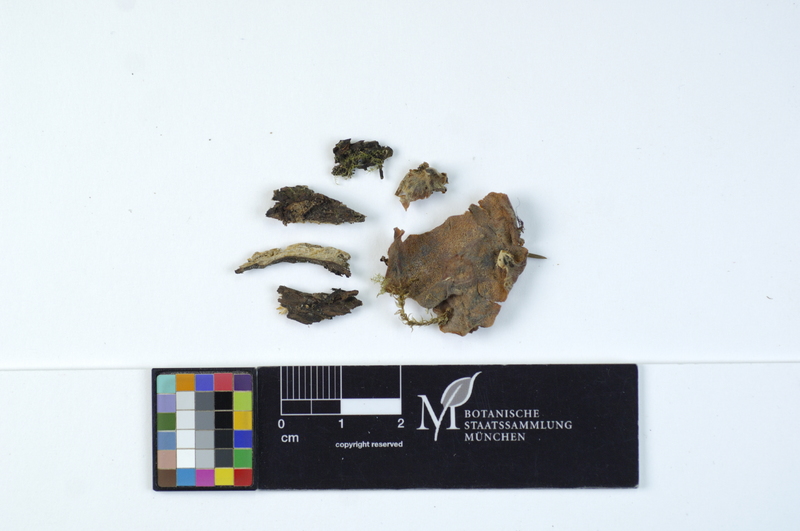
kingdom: Fungi
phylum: Basidiomycota
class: Agaricomycetes
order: Polyporales
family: Meruliaceae
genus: Physisporinus
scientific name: Physisporinus vitreus
